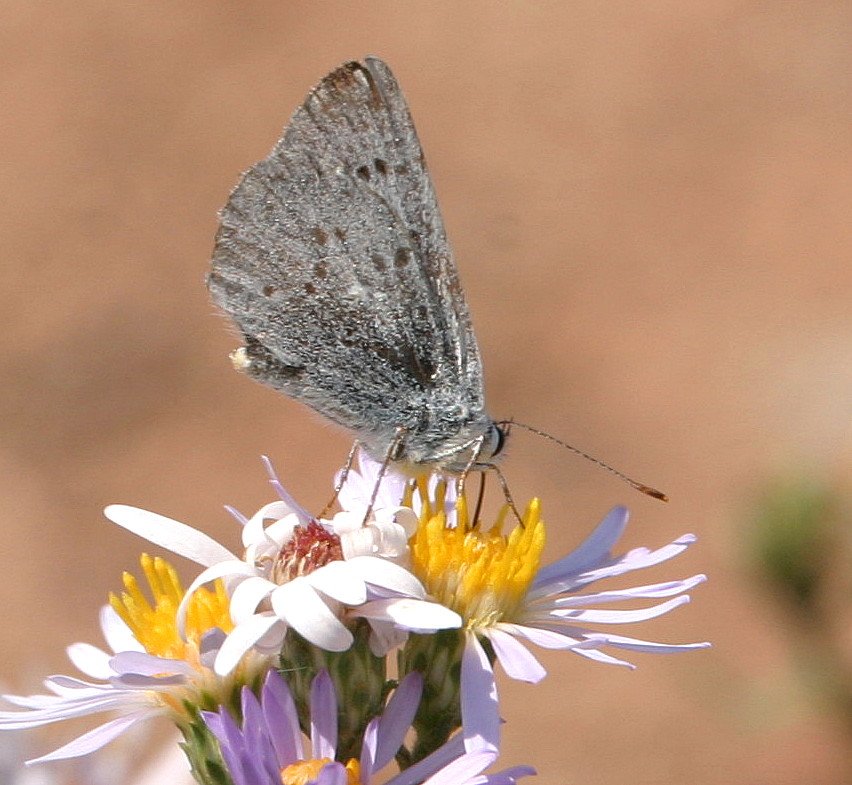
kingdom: Animalia
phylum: Arthropoda
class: Insecta
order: Lepidoptera
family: Lycaenidae
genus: Satyrium
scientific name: Satyrium fuliginosa
